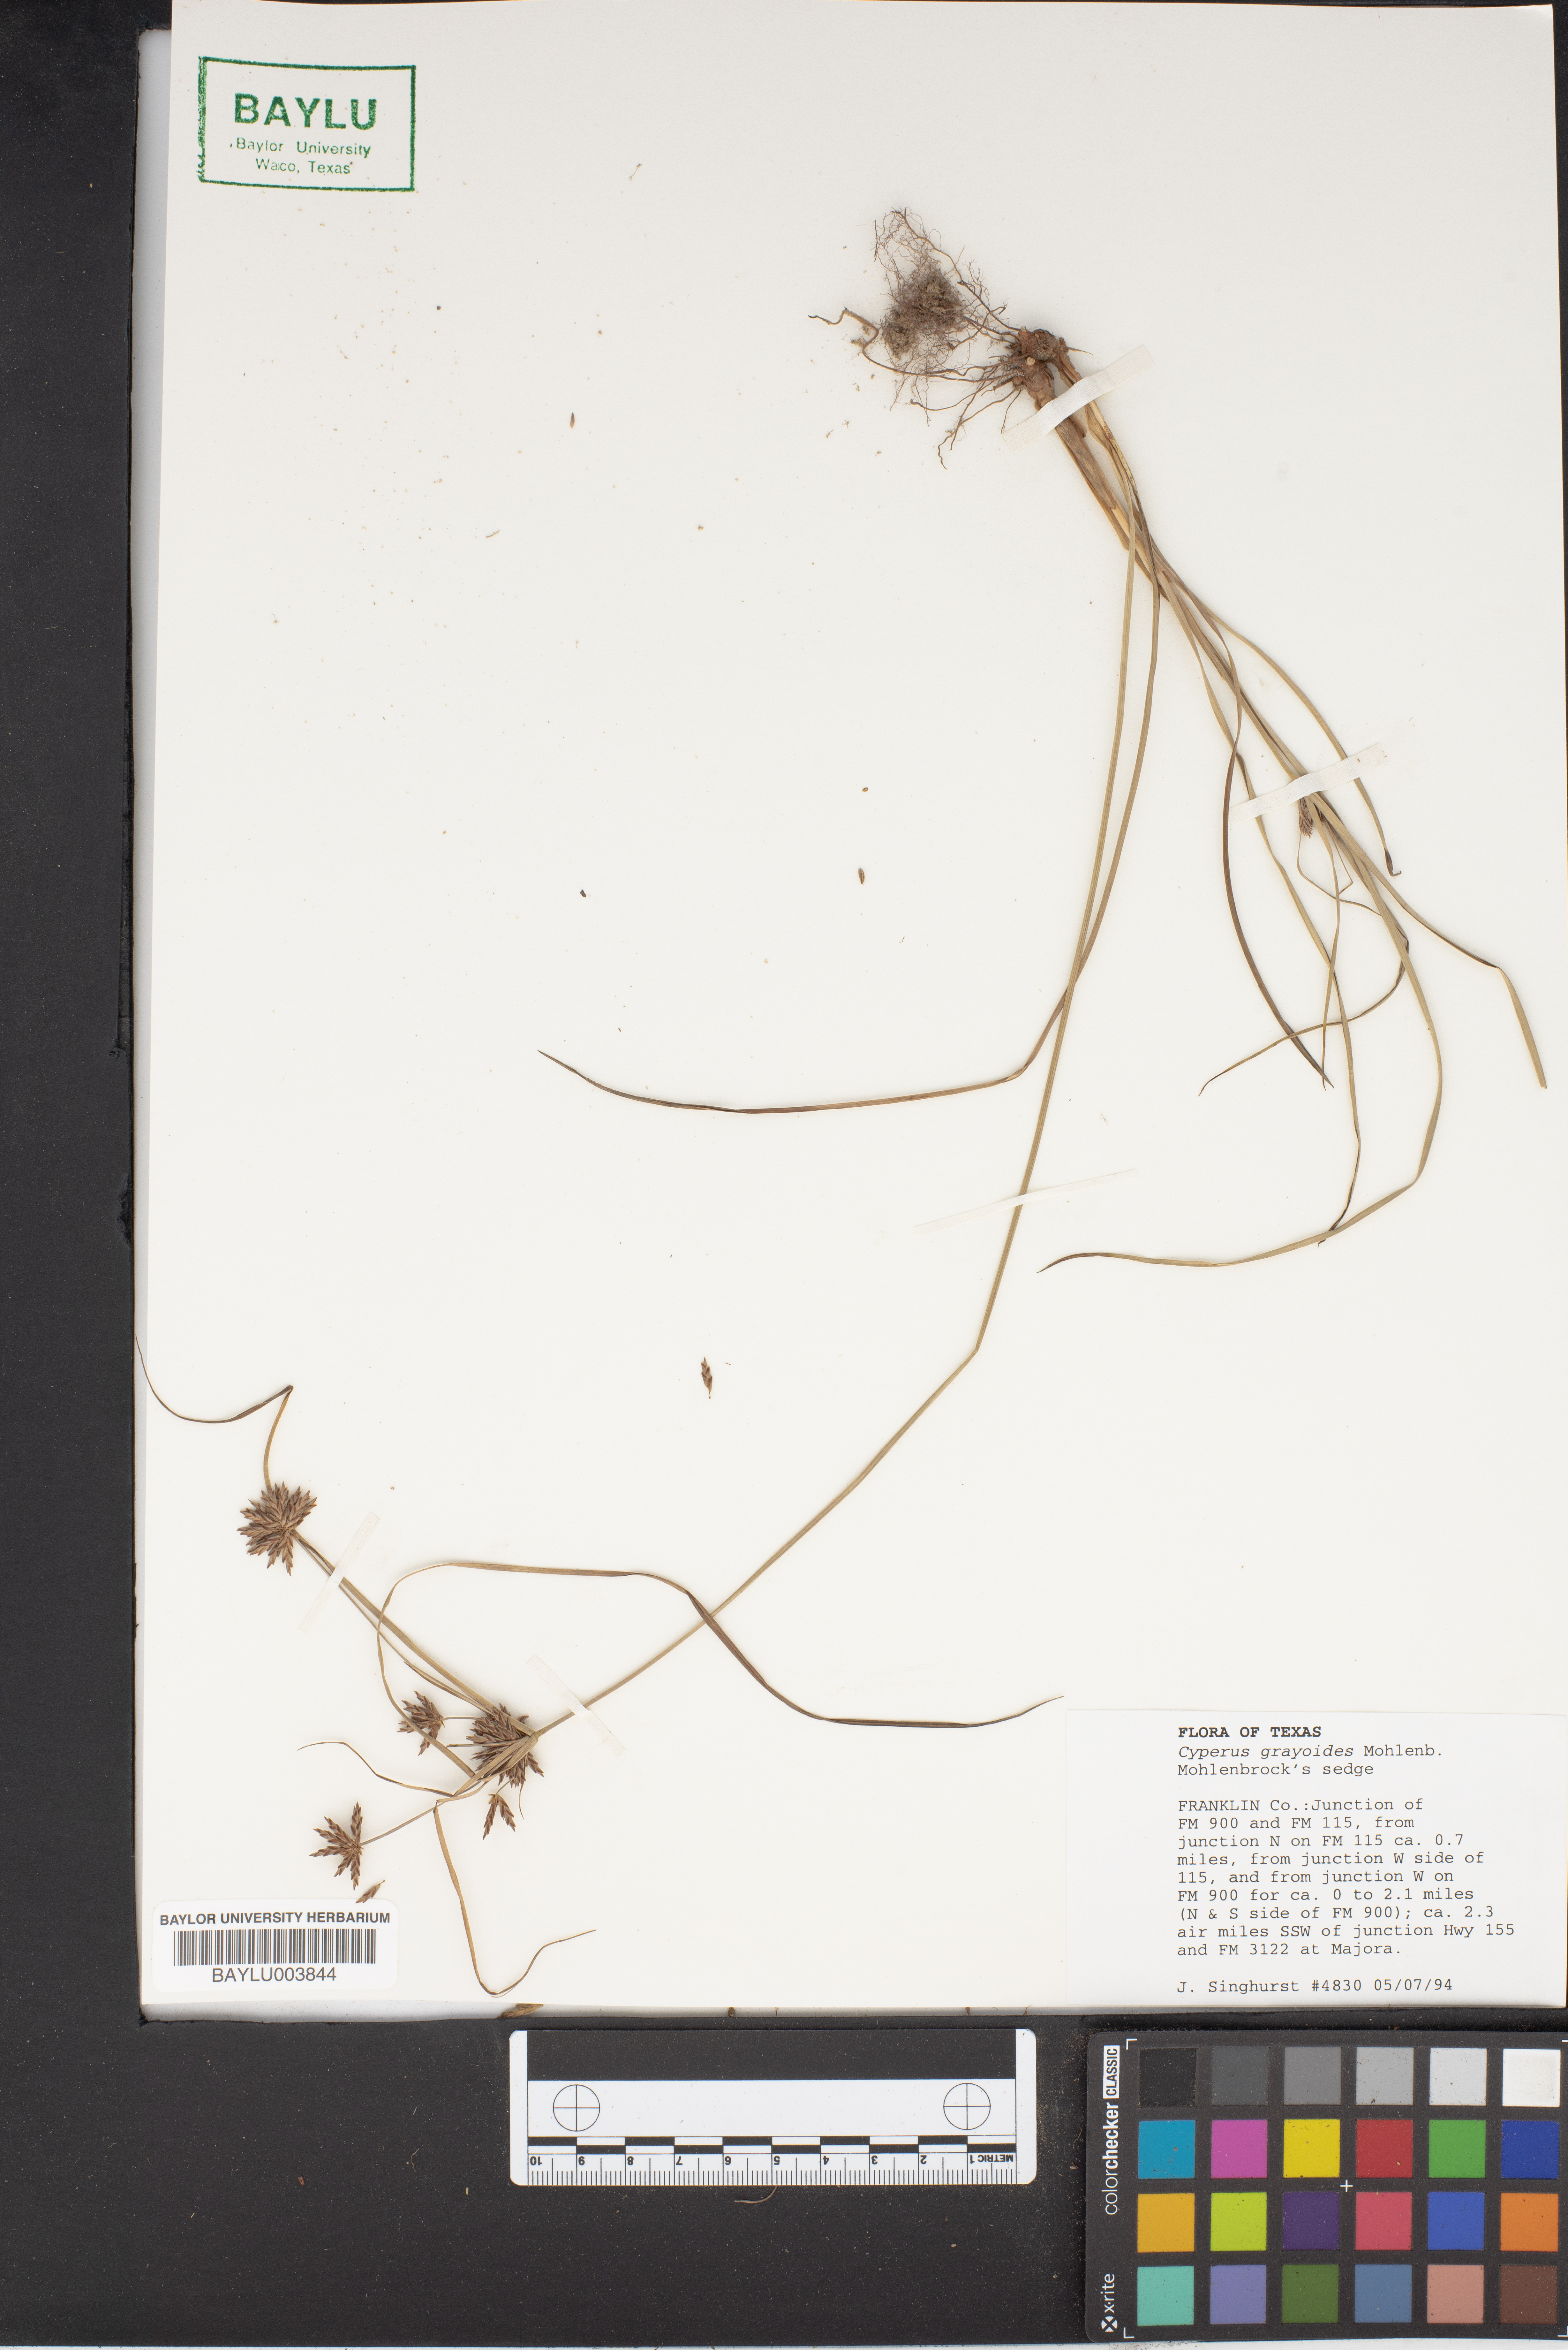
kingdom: Plantae
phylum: Tracheophyta
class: Liliopsida
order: Poales
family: Cyperaceae
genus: Cyperus
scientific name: Cyperus grayioides
